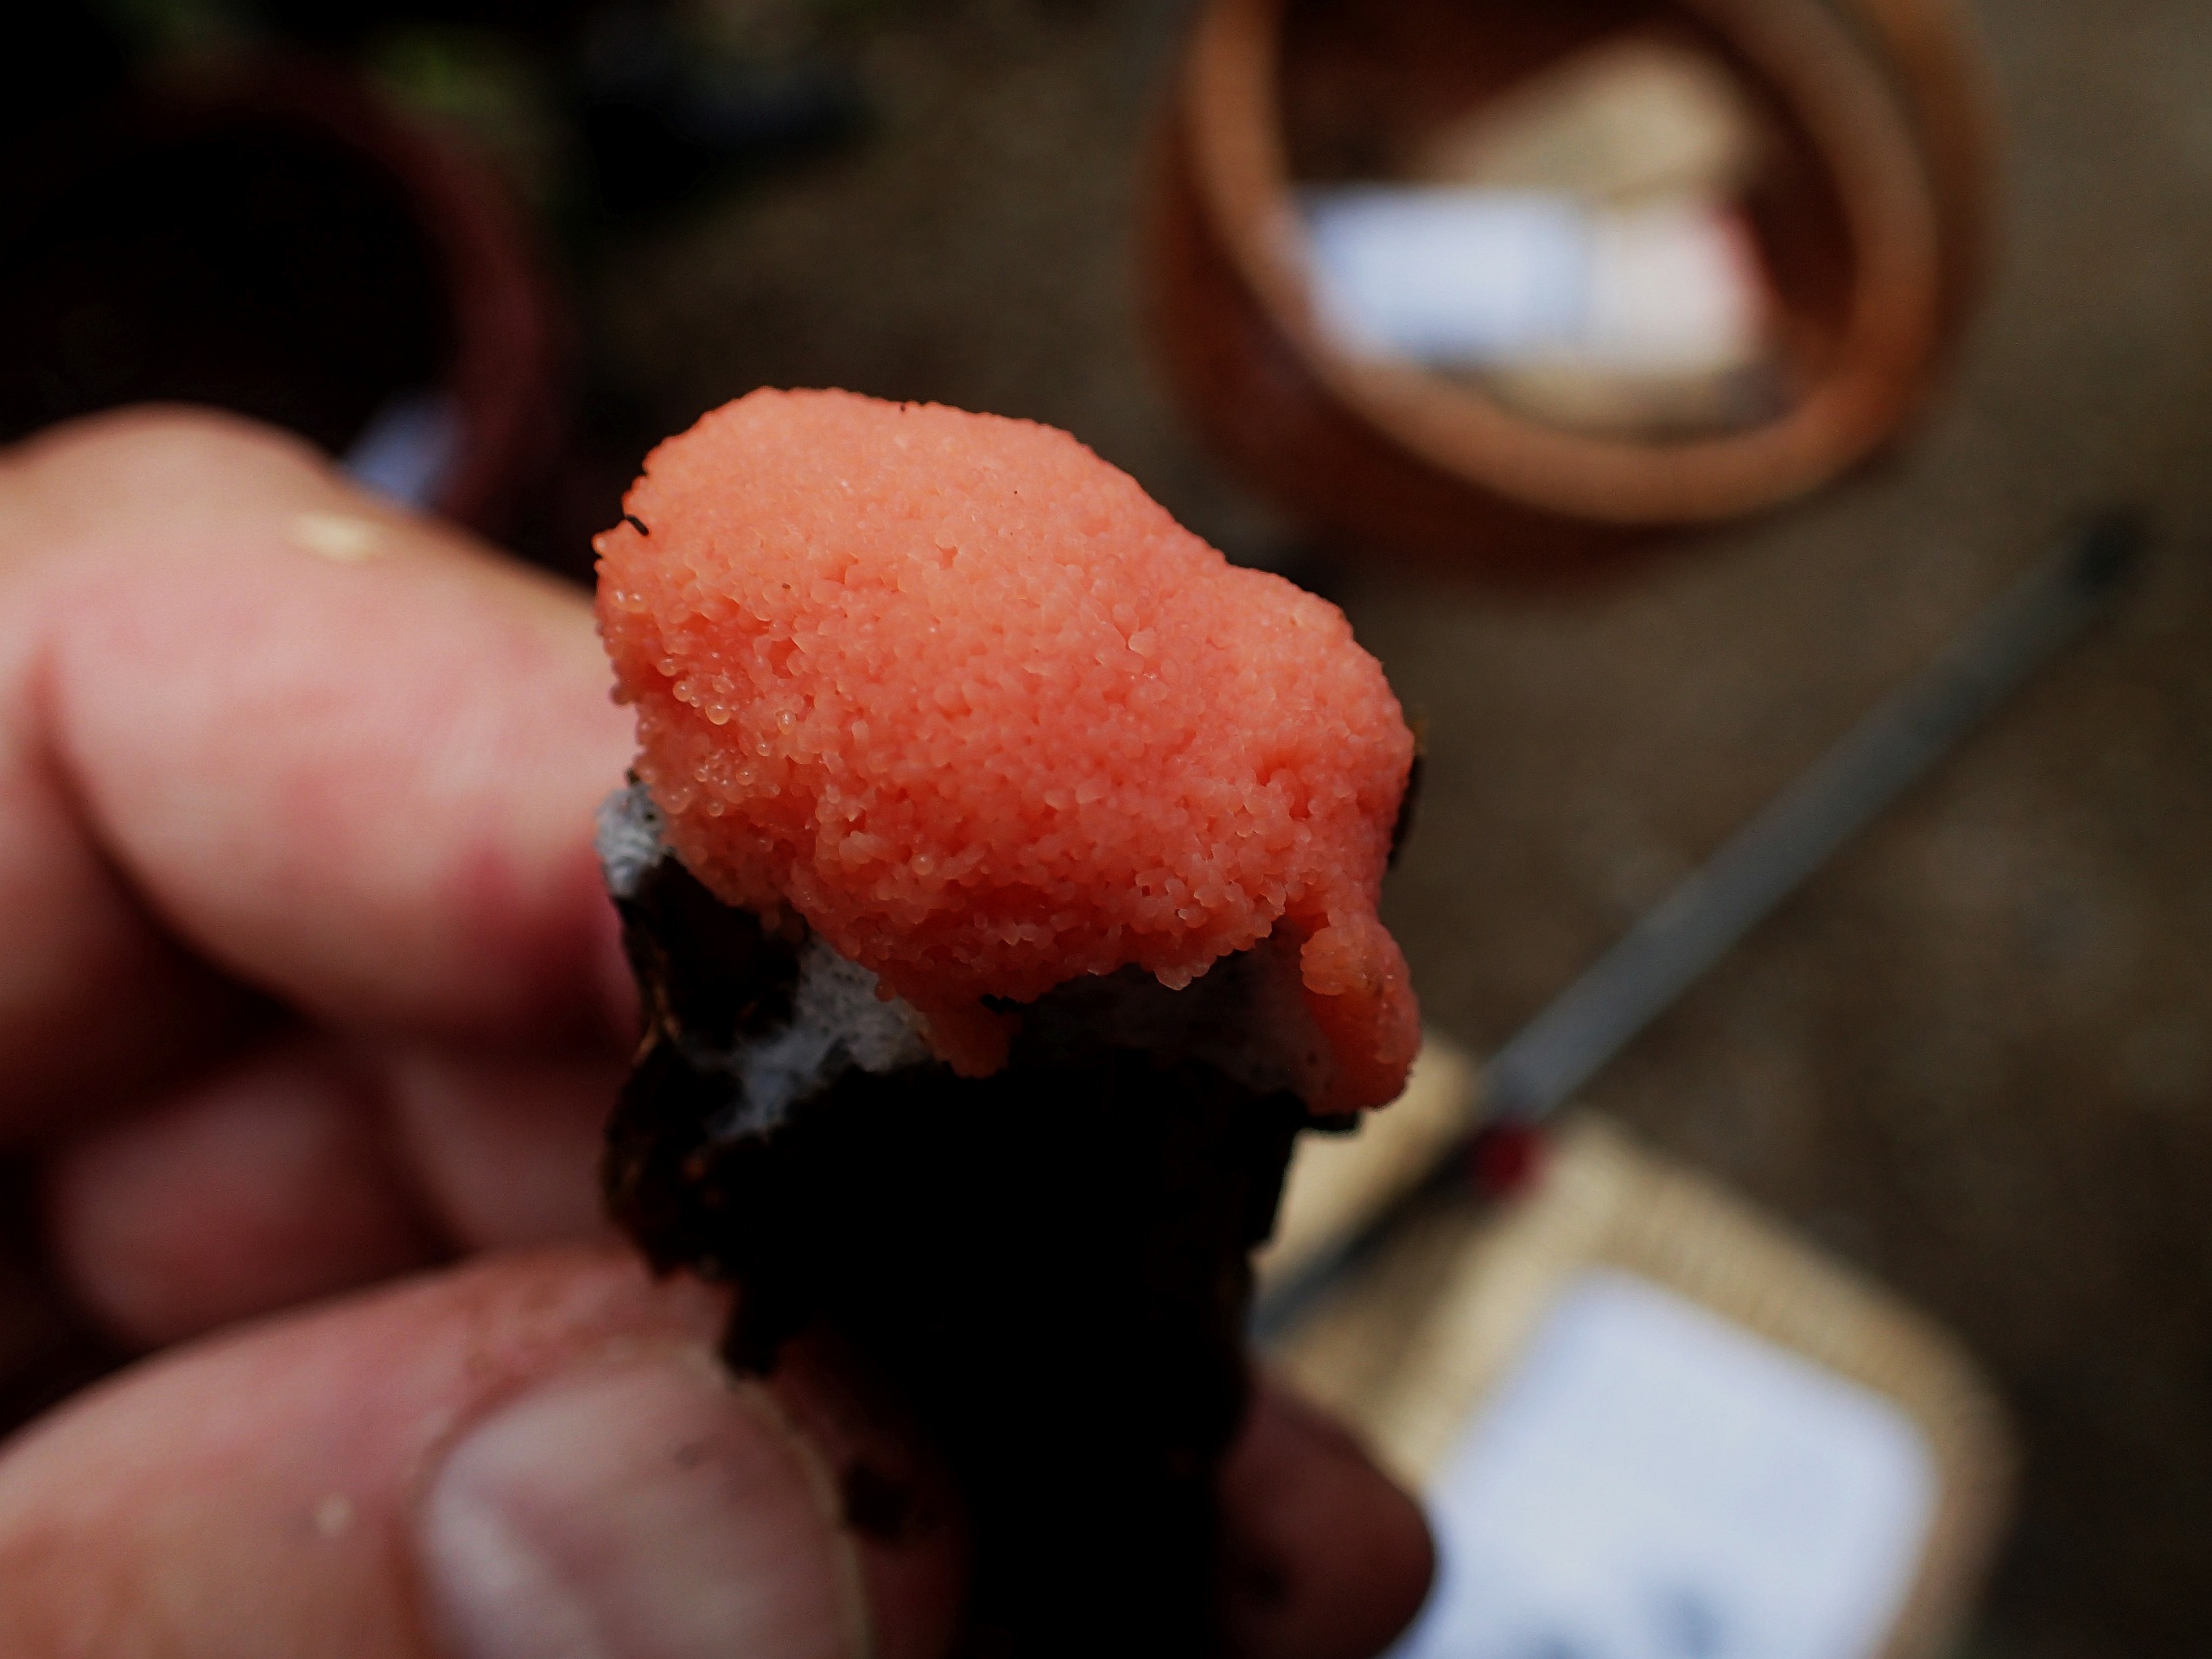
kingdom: Protozoa
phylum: Mycetozoa
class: Myxomycetes
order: Cribrariales
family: Tubiferaceae
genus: Tubifera
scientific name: Tubifera ferruginosa
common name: Kanel-støvrør
